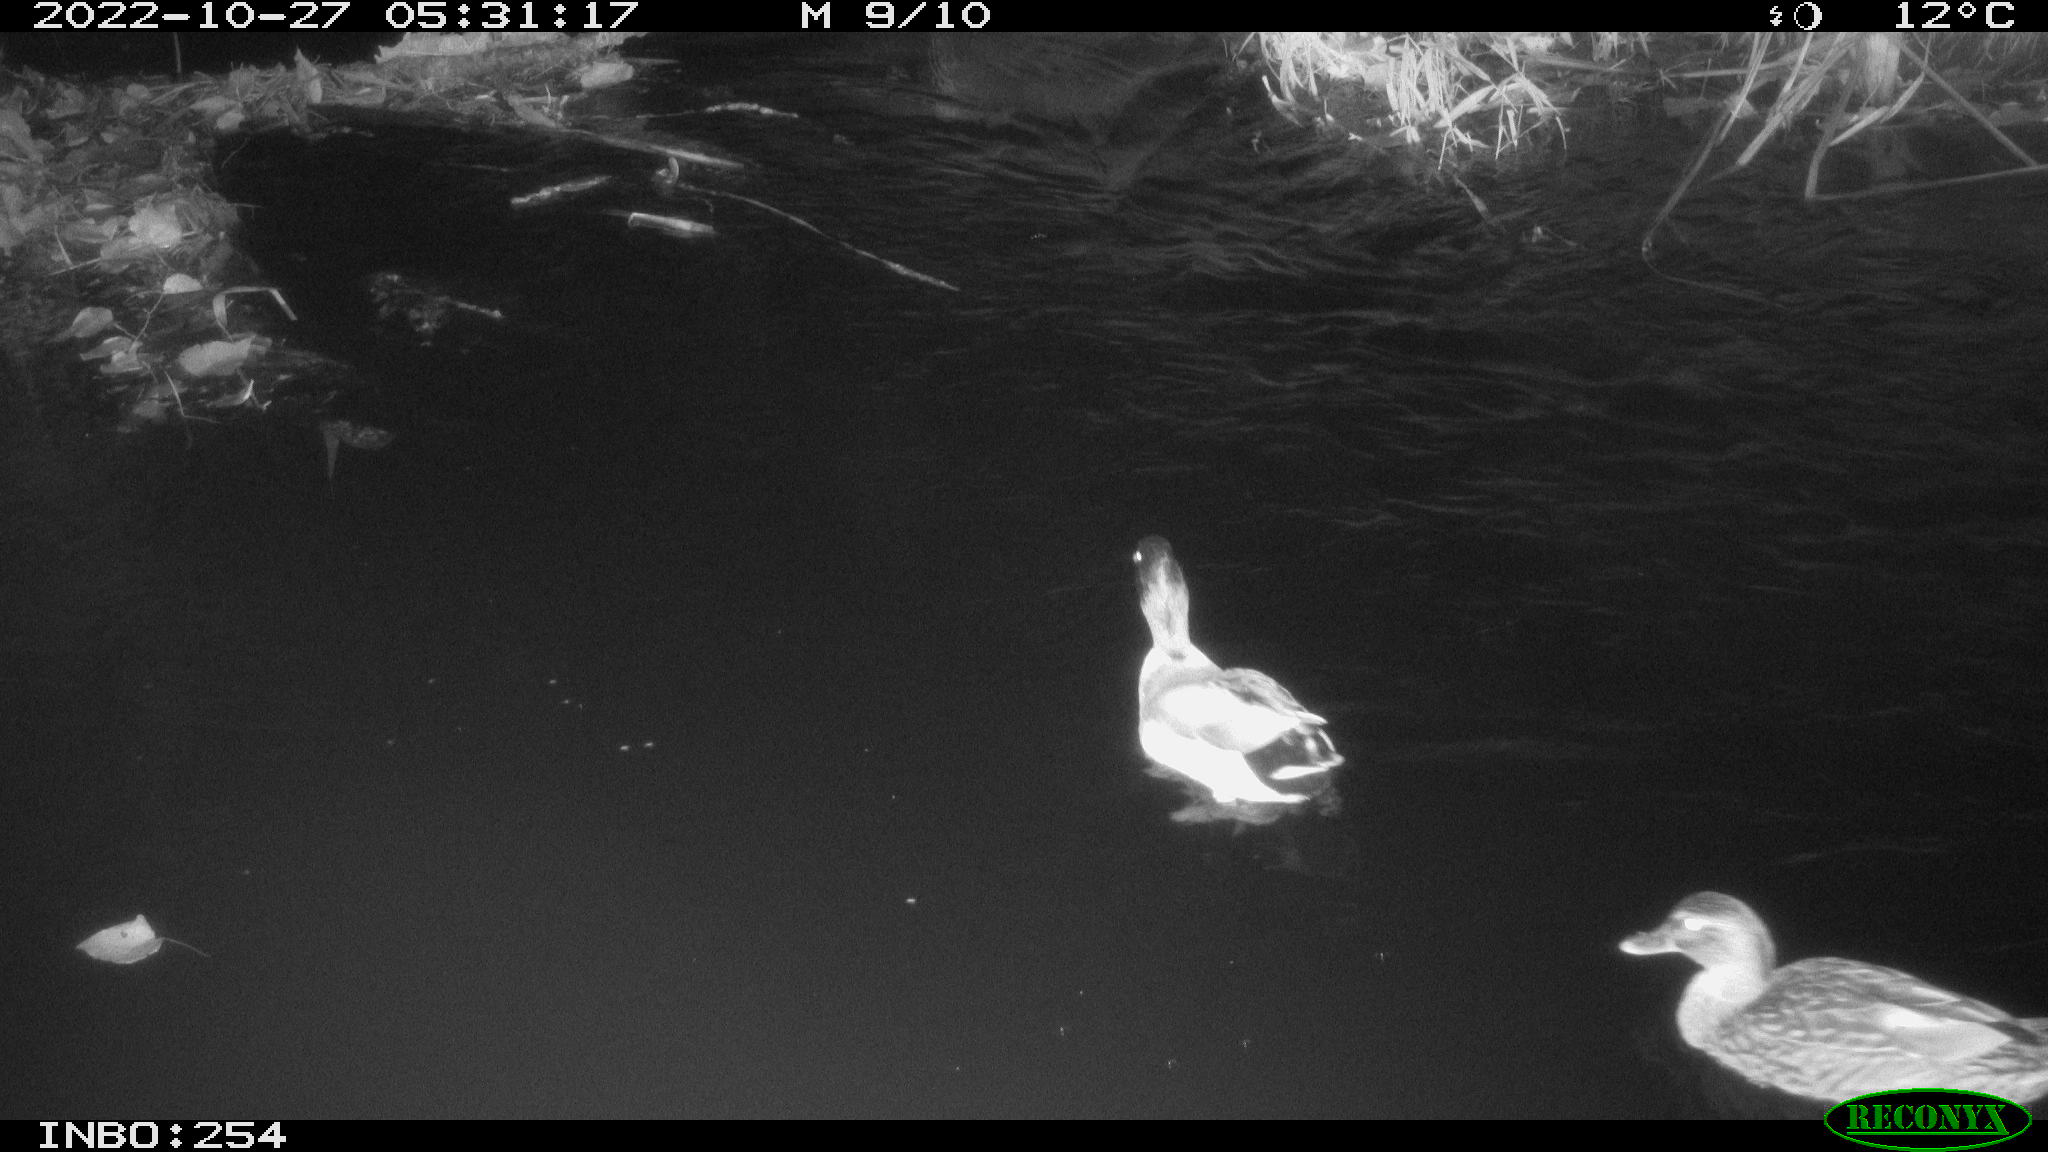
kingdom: Animalia
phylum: Chordata
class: Aves
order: Anseriformes
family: Anatidae
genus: Anas
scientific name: Anas
